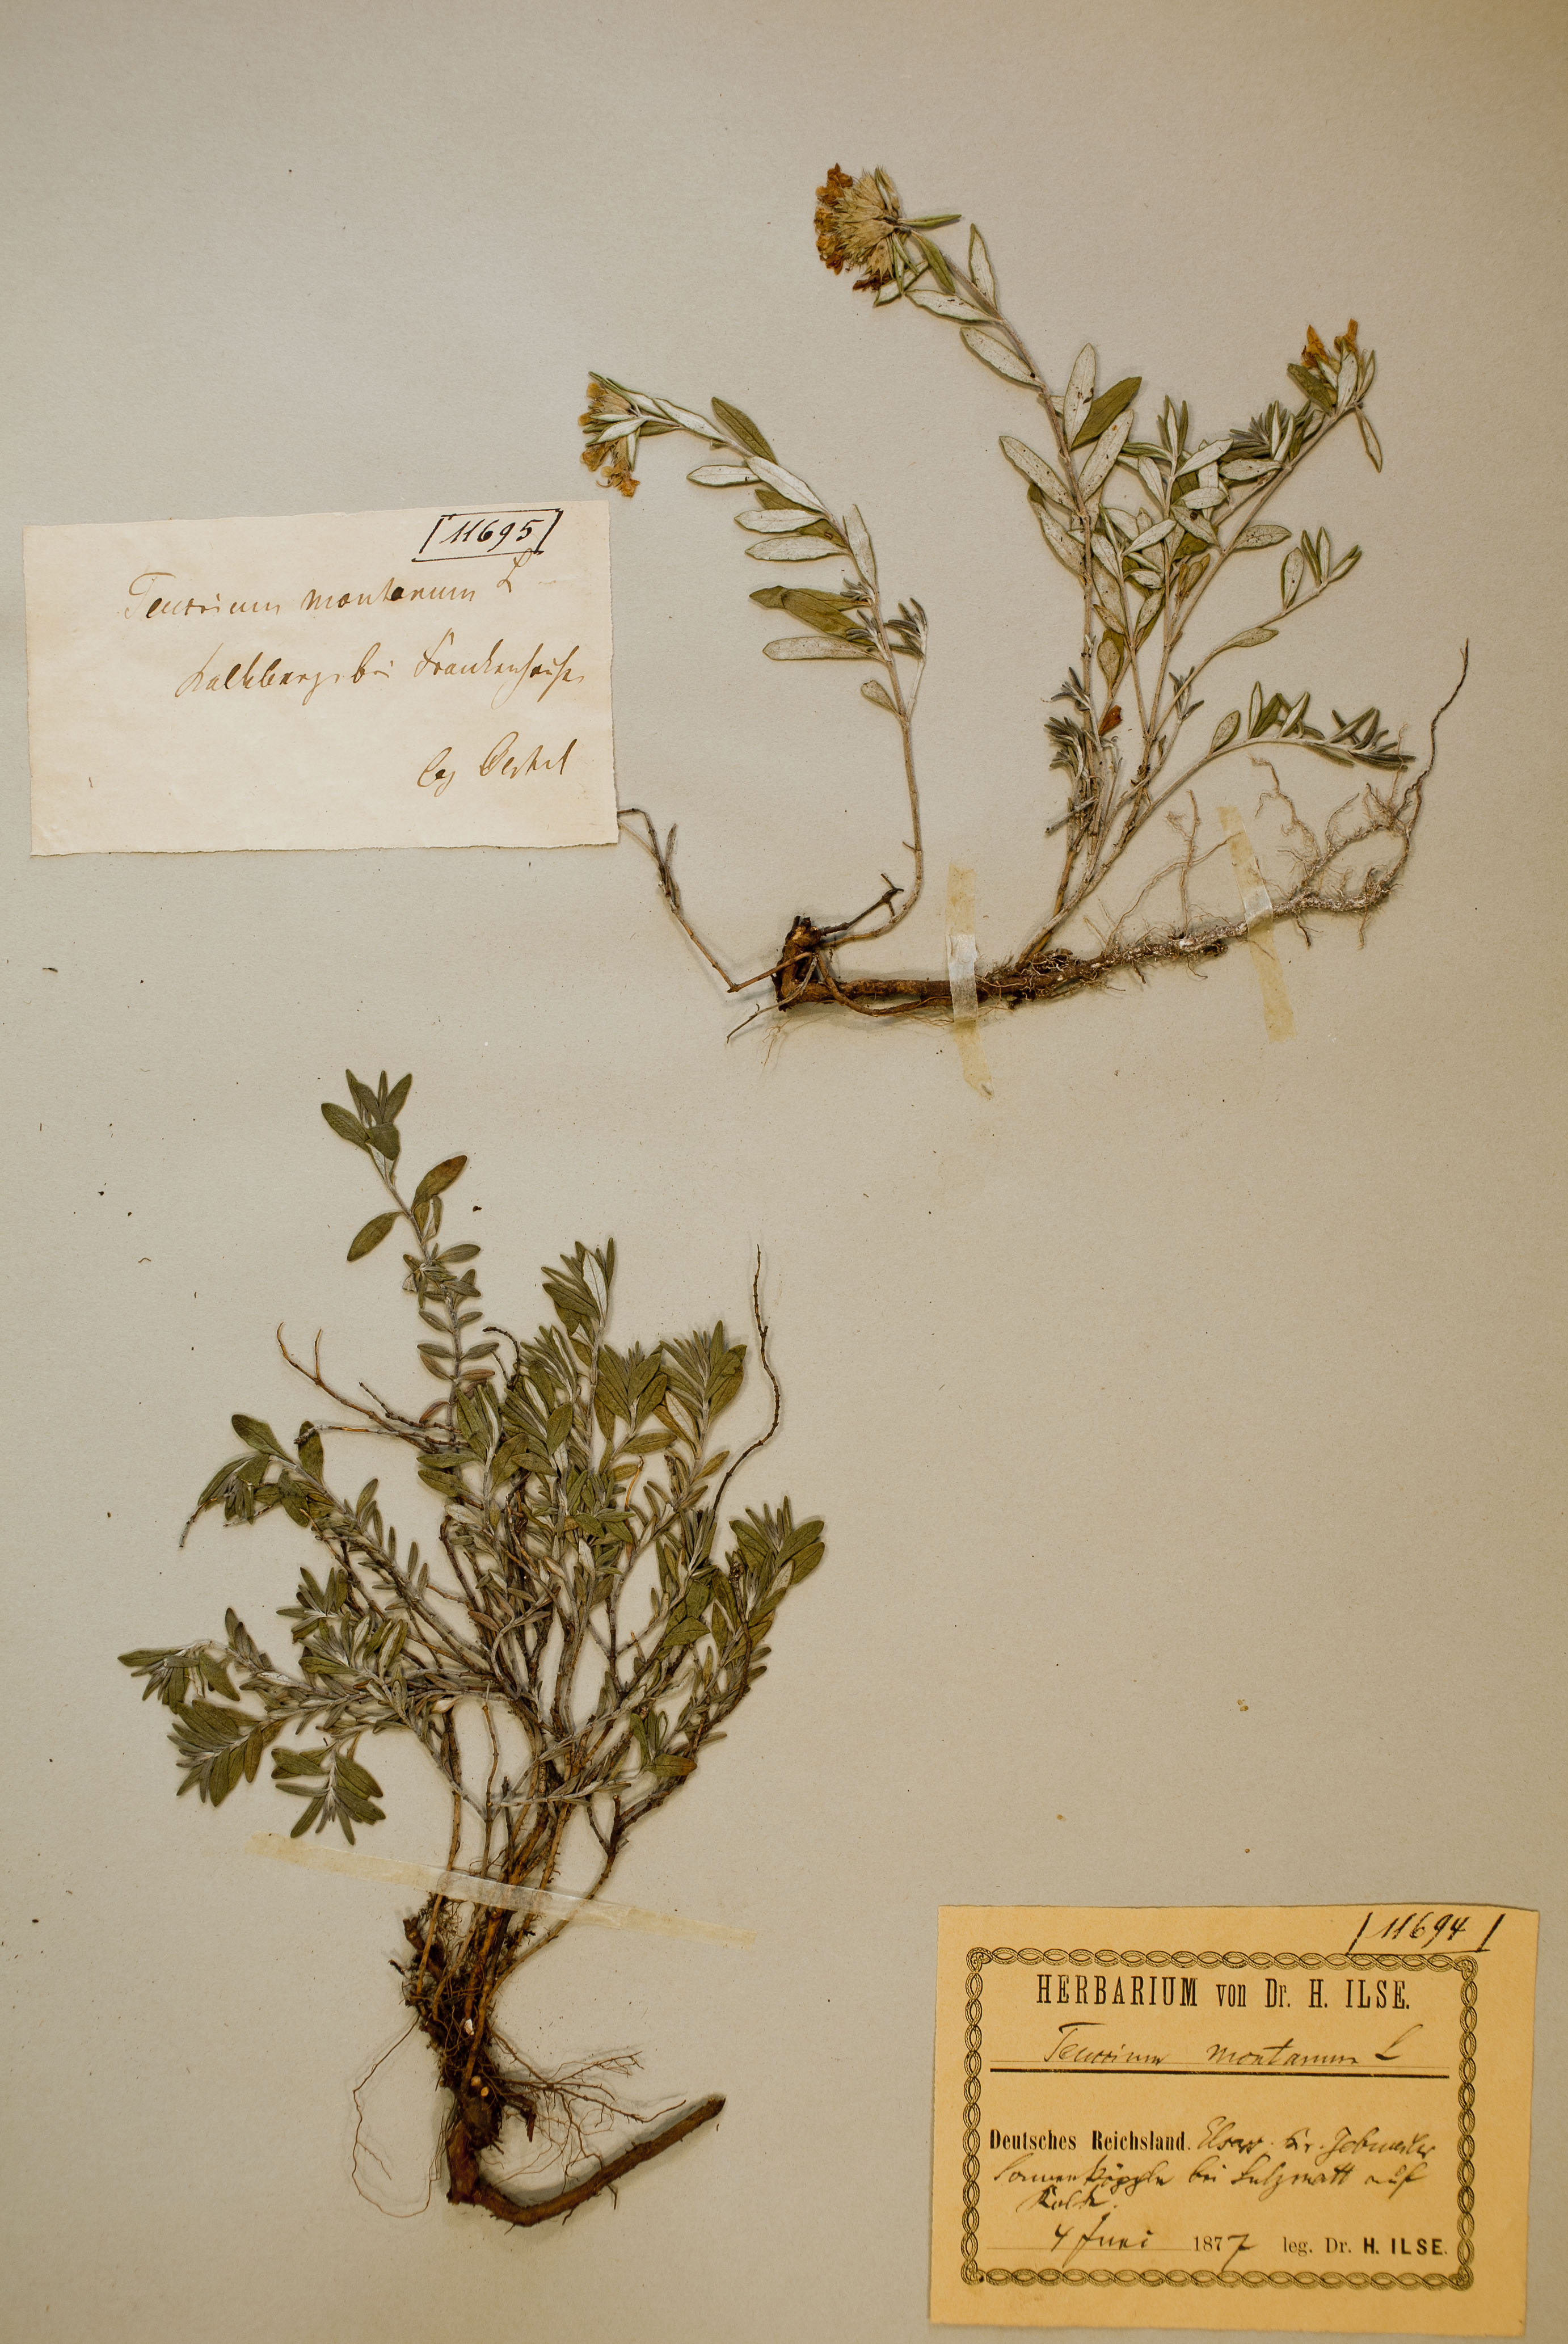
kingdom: Plantae
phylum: Tracheophyta
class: Magnoliopsida
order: Lamiales
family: Lamiaceae
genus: Teucrium
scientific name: Teucrium montanum
